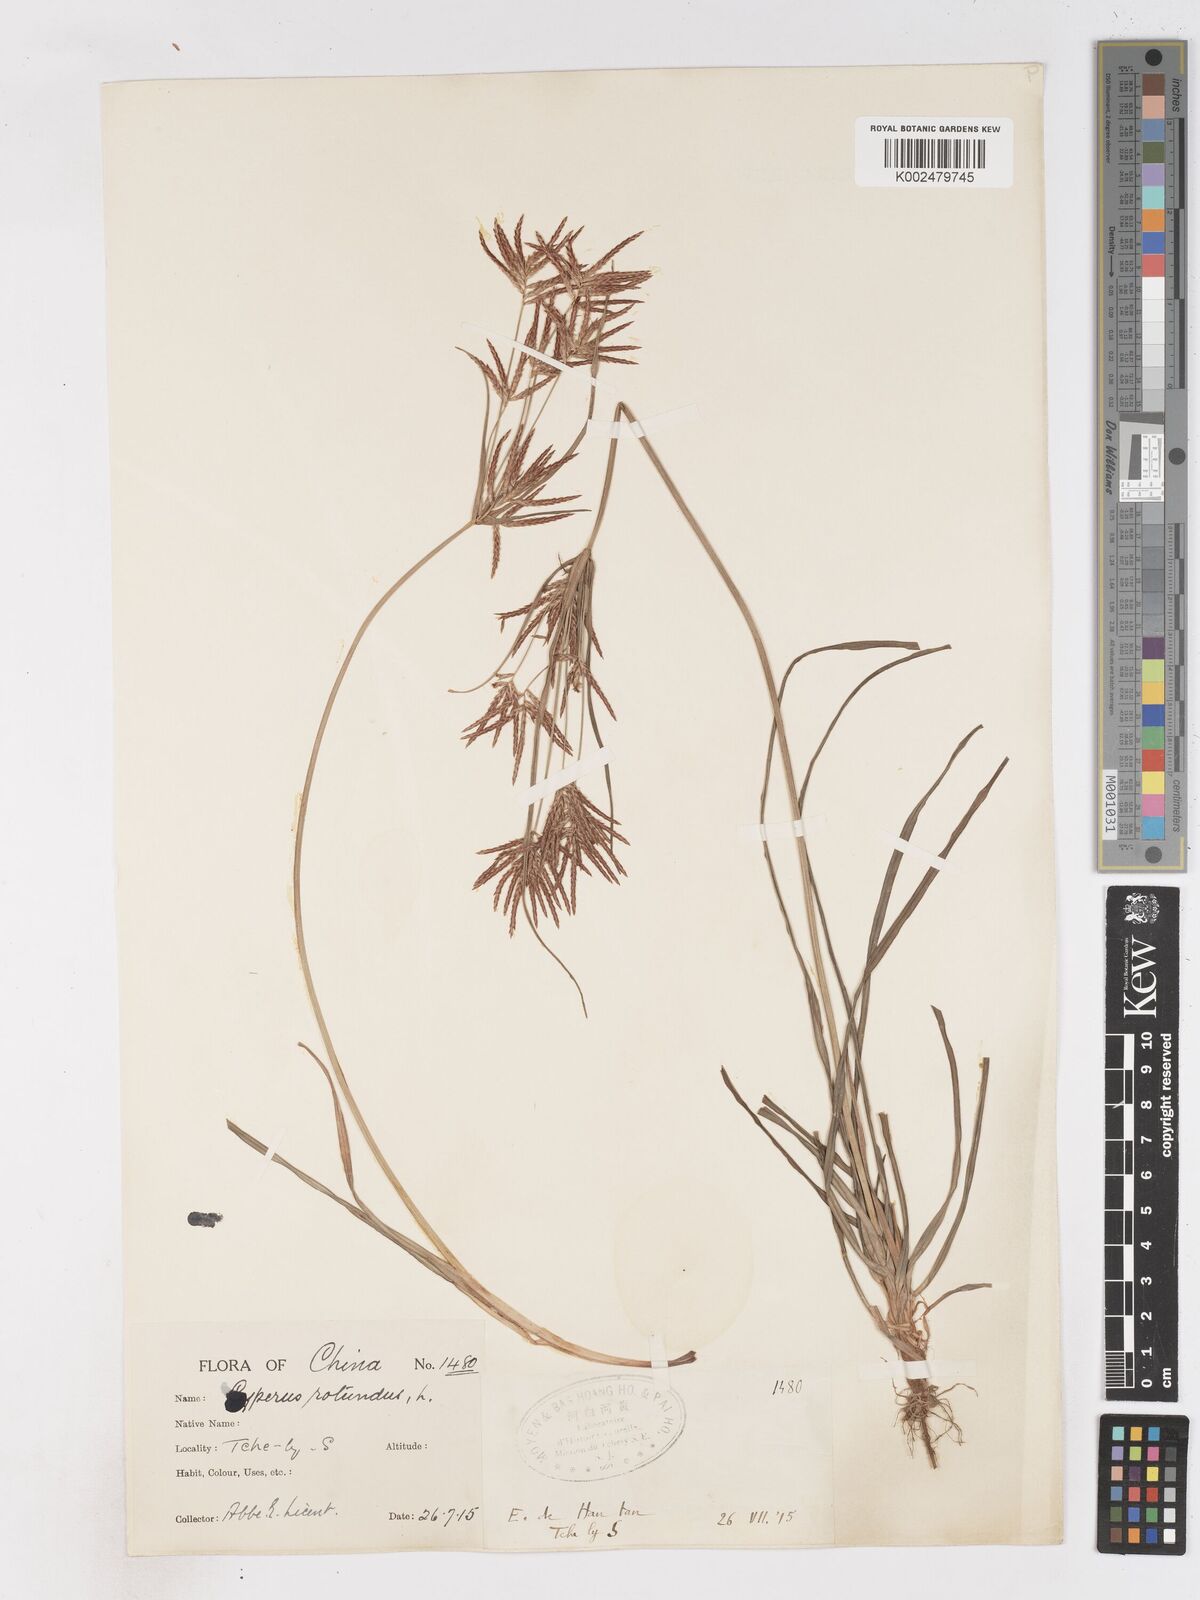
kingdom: Plantae
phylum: Tracheophyta
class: Liliopsida
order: Poales
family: Cyperaceae
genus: Cyperus
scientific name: Cyperus rotundus
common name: Nutgrass
